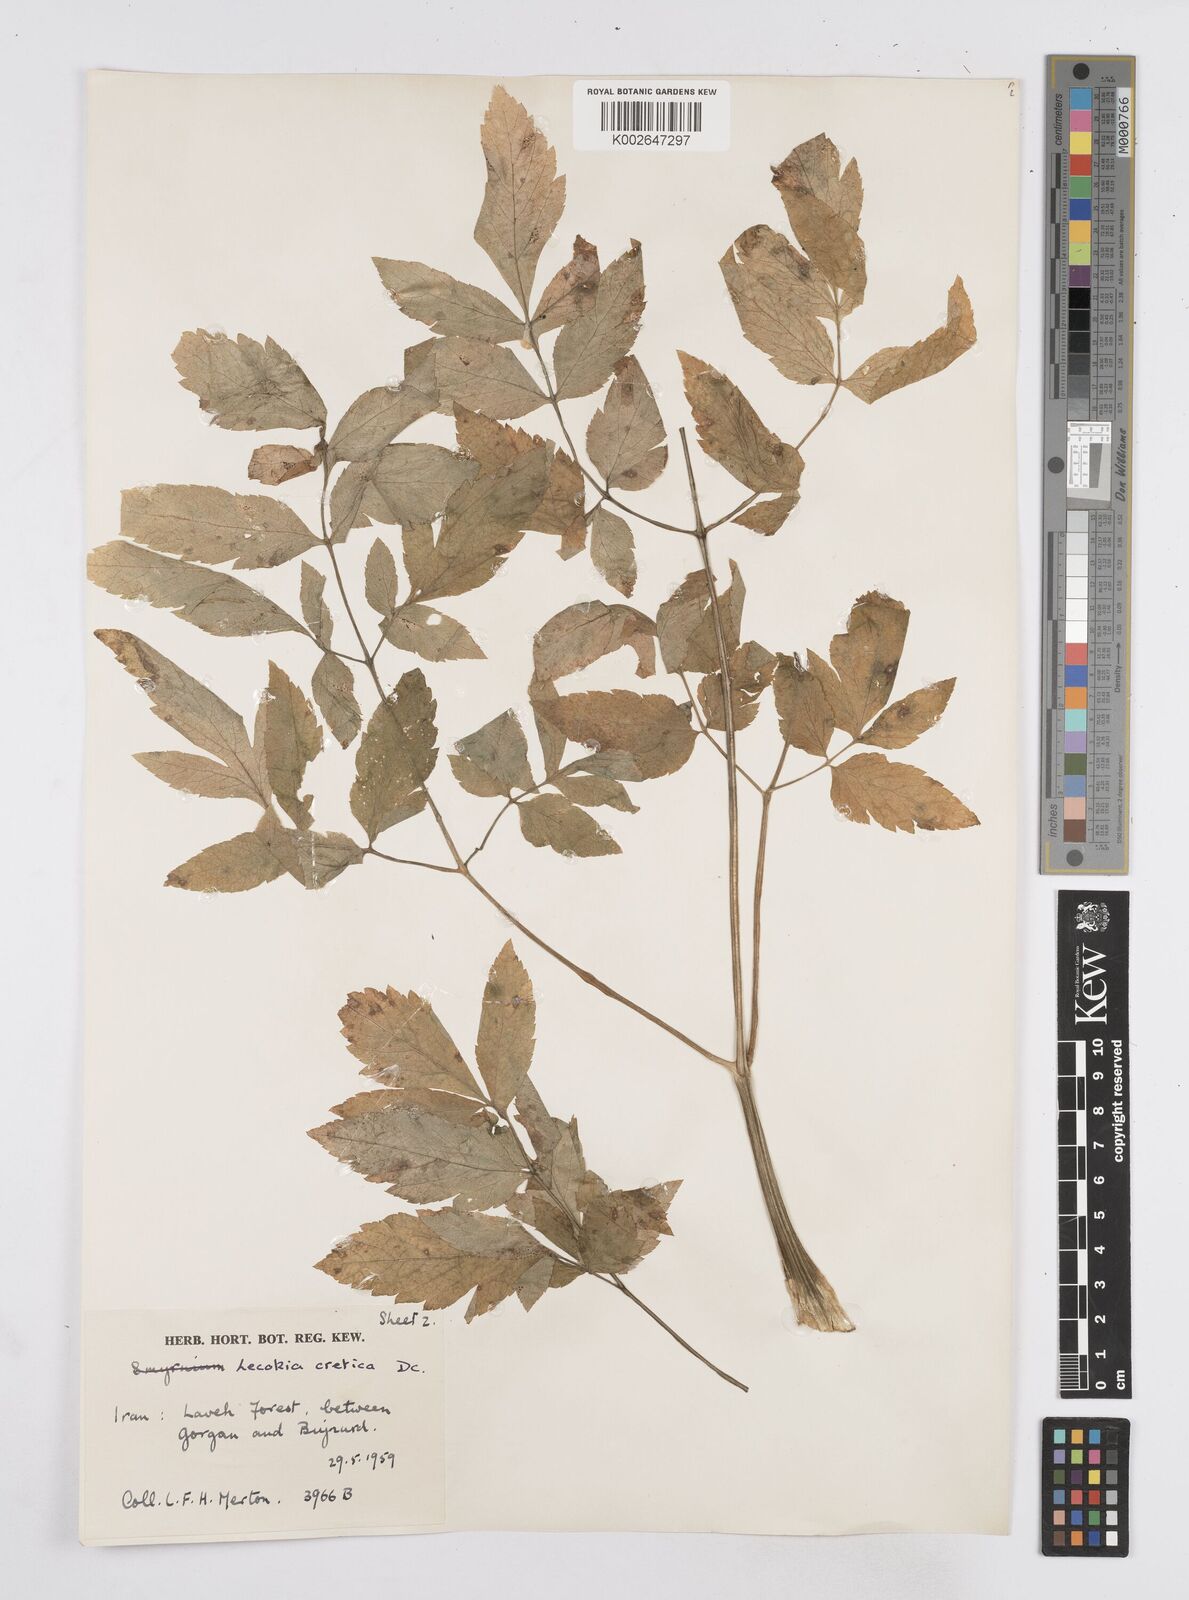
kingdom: Plantae
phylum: Tracheophyta
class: Magnoliopsida
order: Apiales
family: Apiaceae
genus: Lecokia
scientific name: Lecokia cretica
